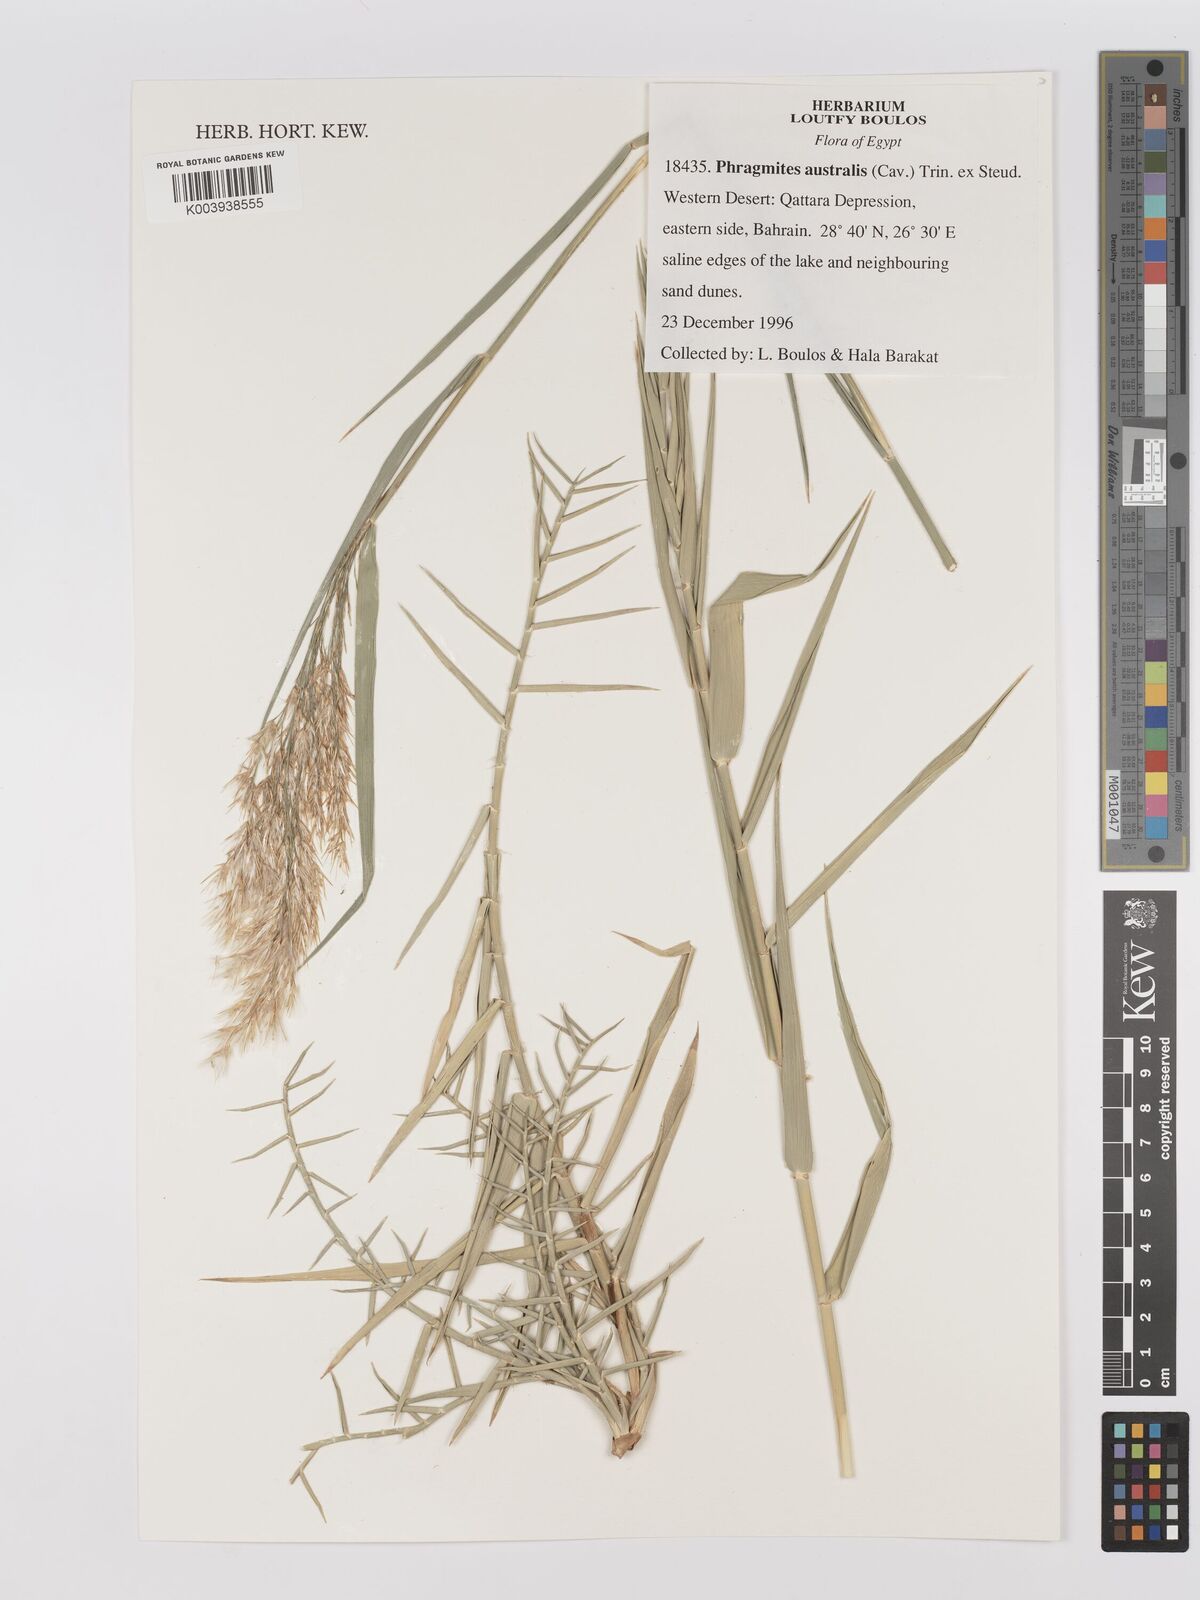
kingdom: Plantae
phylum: Tracheophyta
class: Liliopsida
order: Poales
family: Poaceae
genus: Phragmites
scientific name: Phragmites australis
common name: Common reed
